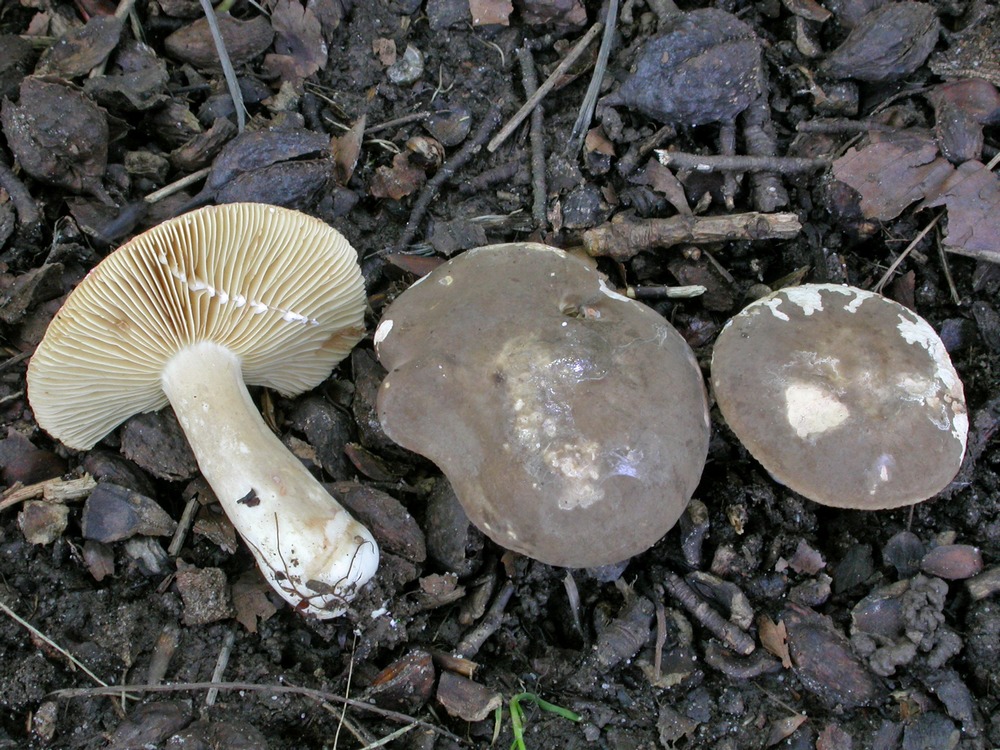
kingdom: Fungi
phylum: Basidiomycota
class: Agaricomycetes
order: Russulales
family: Russulaceae
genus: Lactarius
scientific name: Lactarius acris
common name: rosamælket mælkehat
